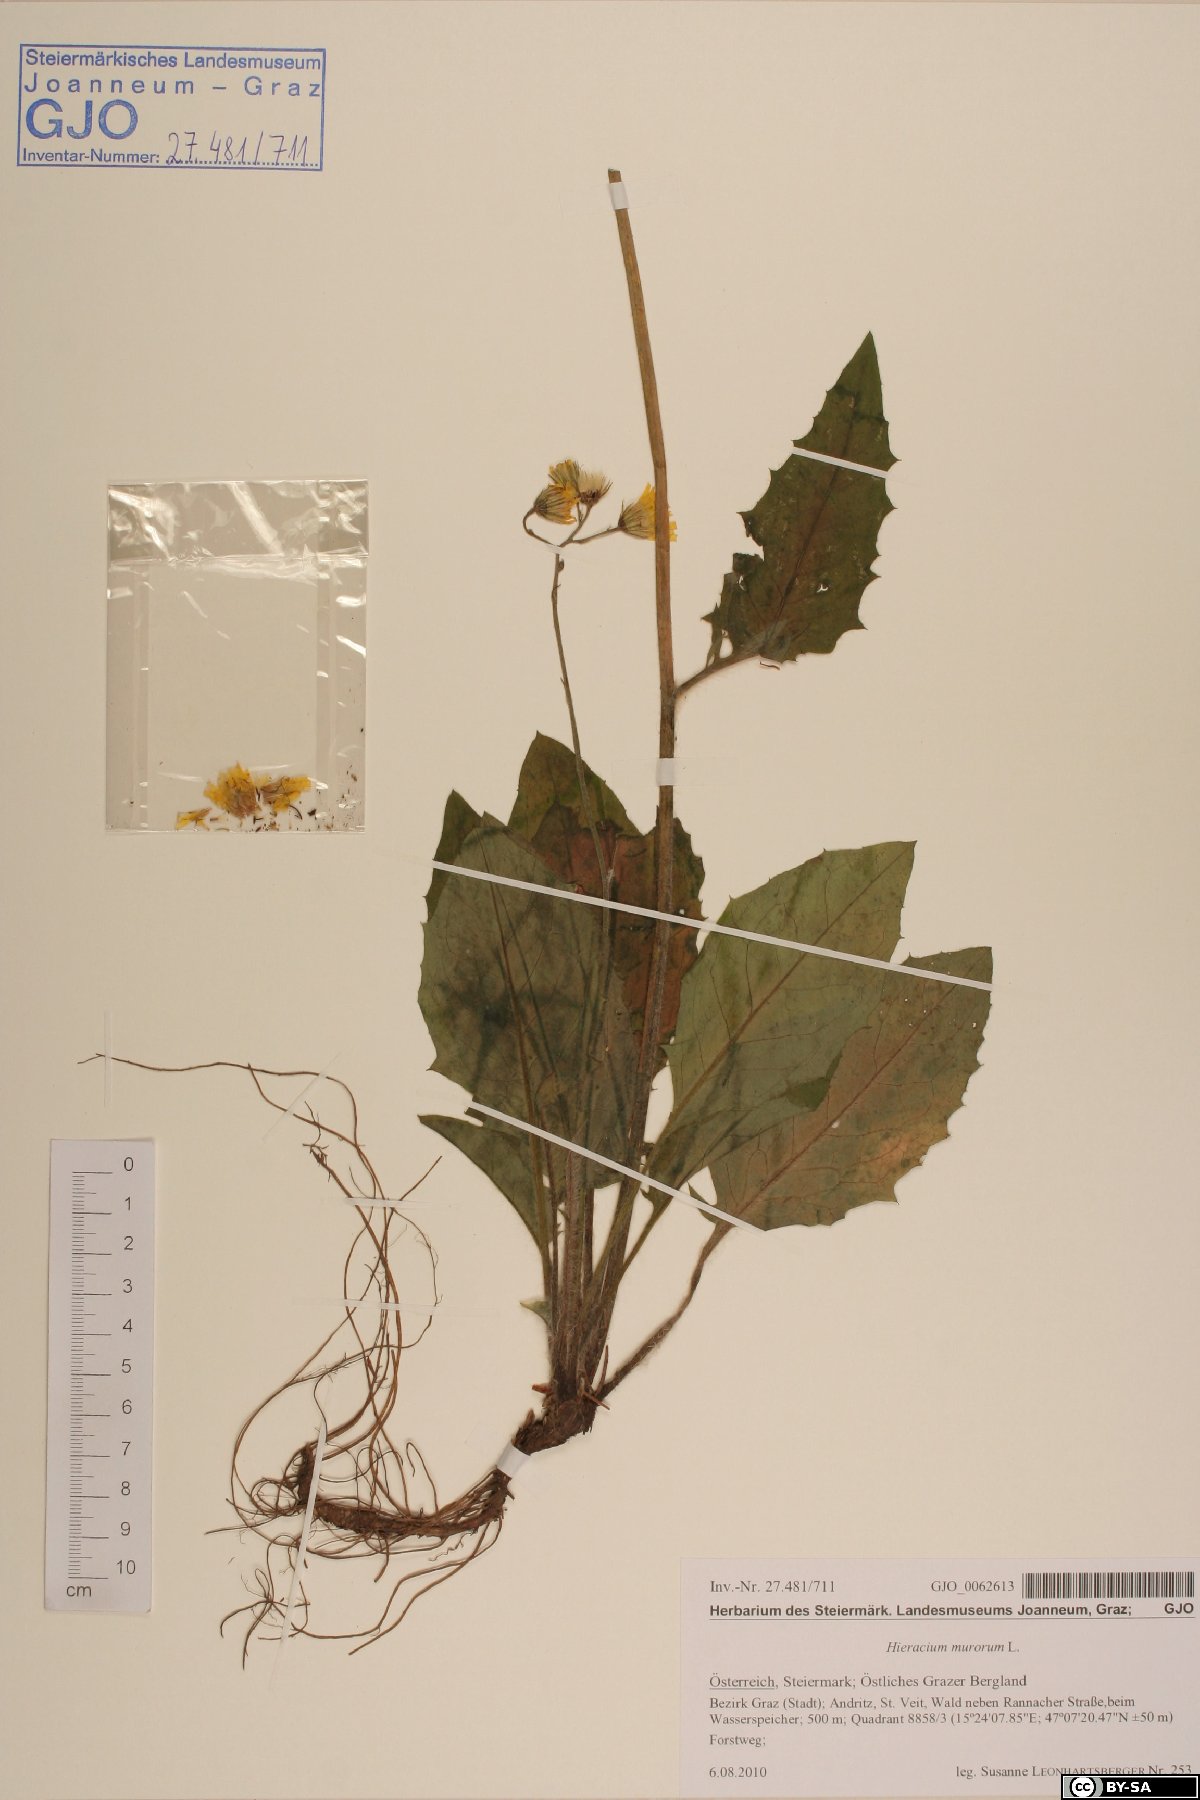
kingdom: Plantae
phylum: Tracheophyta
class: Magnoliopsida
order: Asterales
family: Asteraceae
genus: Hieracium
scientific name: Hieracium murorum
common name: Wall hawkweed
